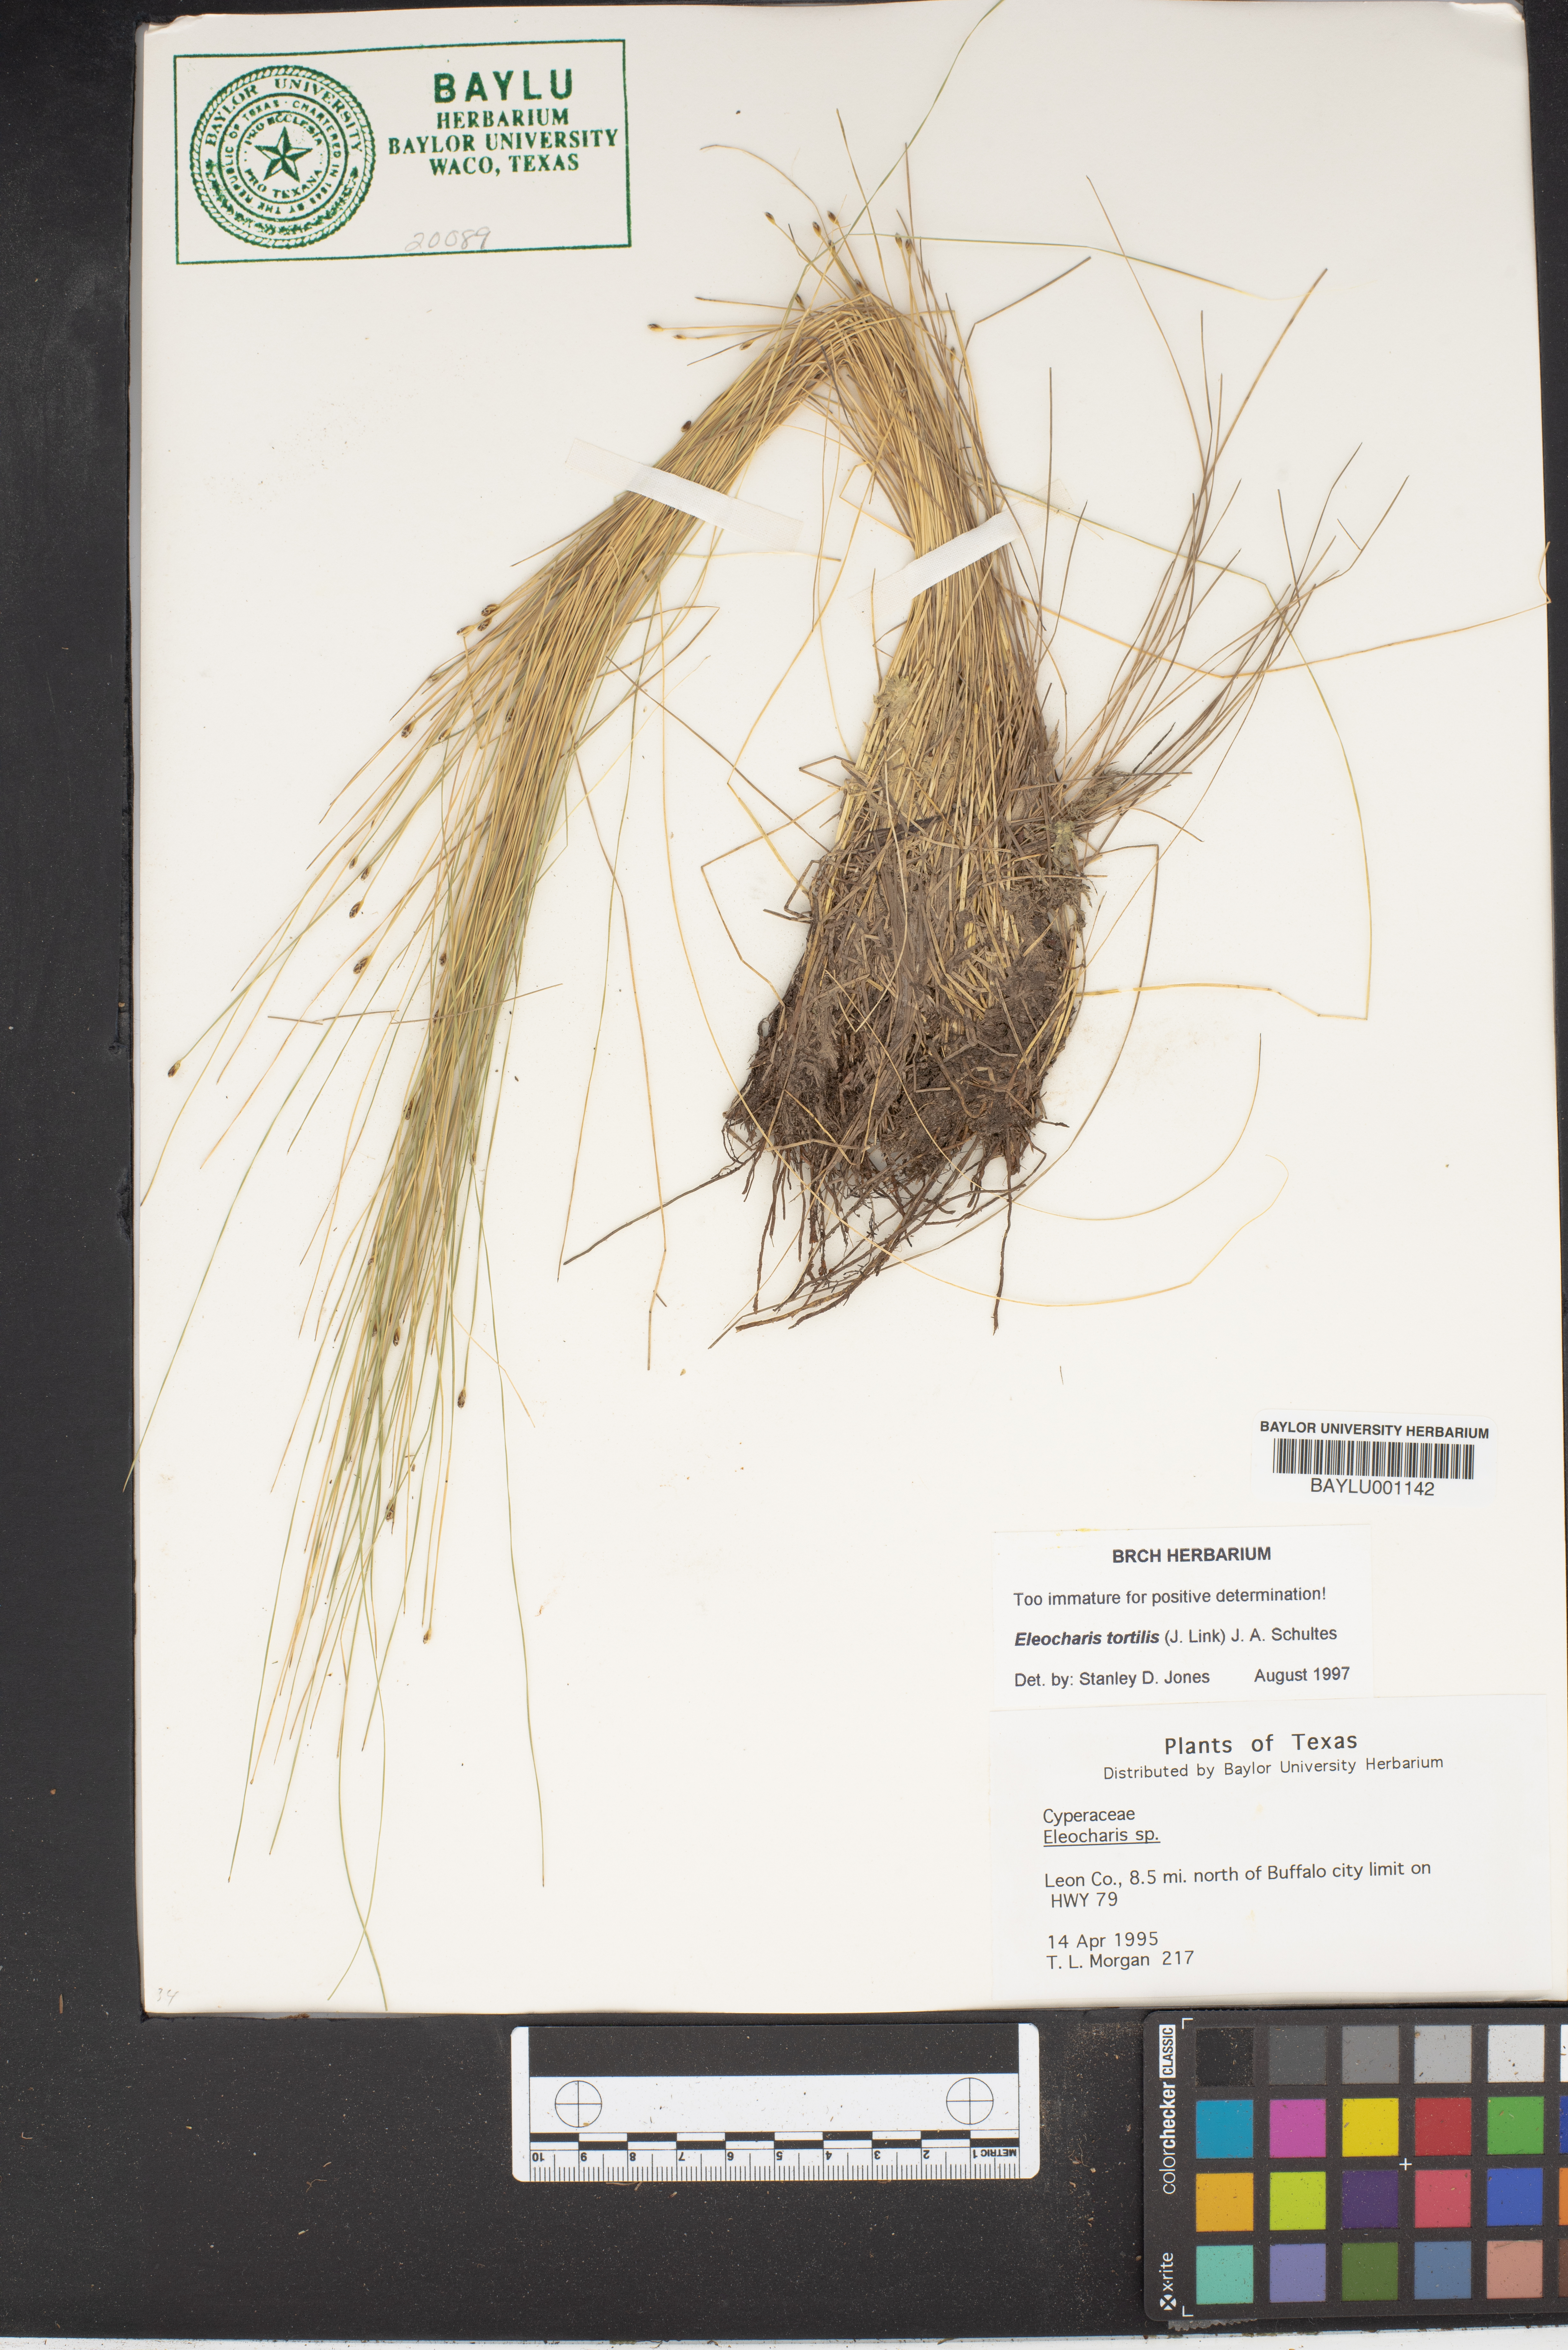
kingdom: Plantae
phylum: Tracheophyta
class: Liliopsida
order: Poales
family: Cyperaceae
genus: Eleocharis
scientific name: Eleocharis tortilis
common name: Twisted spike sedge
